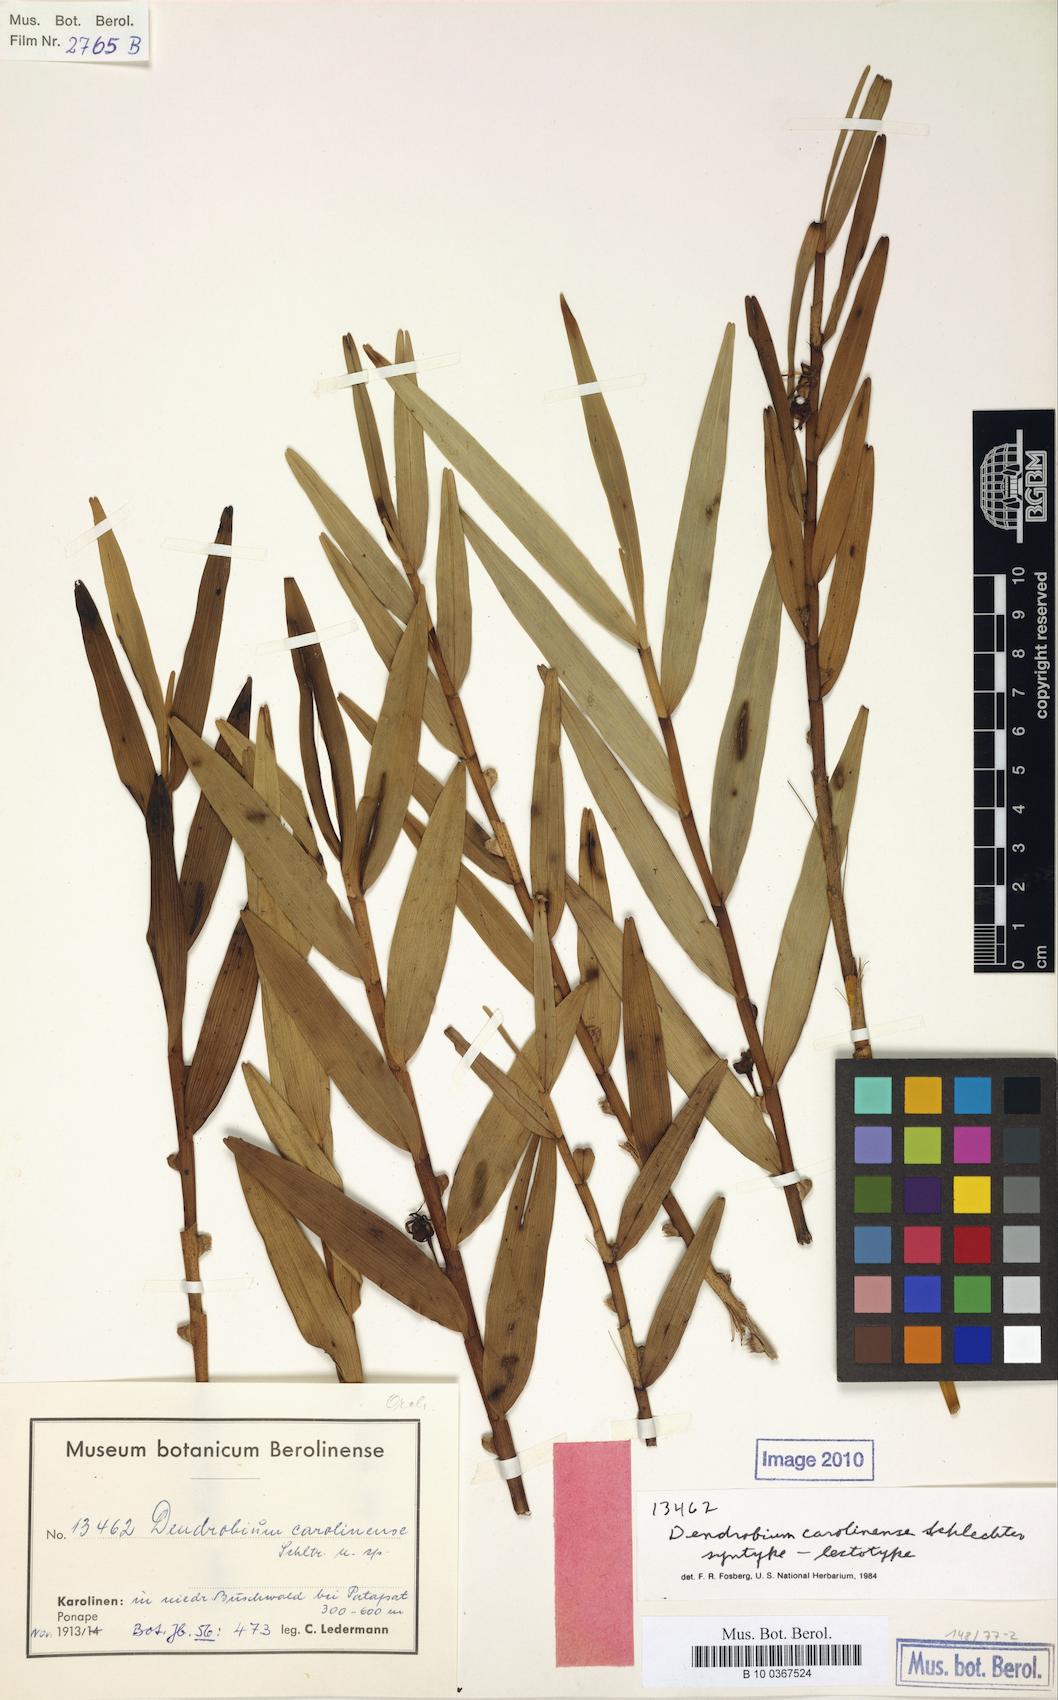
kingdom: Plantae
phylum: Tracheophyta
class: Liliopsida
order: Asparagales
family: Orchidaceae
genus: Dendrobium
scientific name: Dendrobium carolinense
